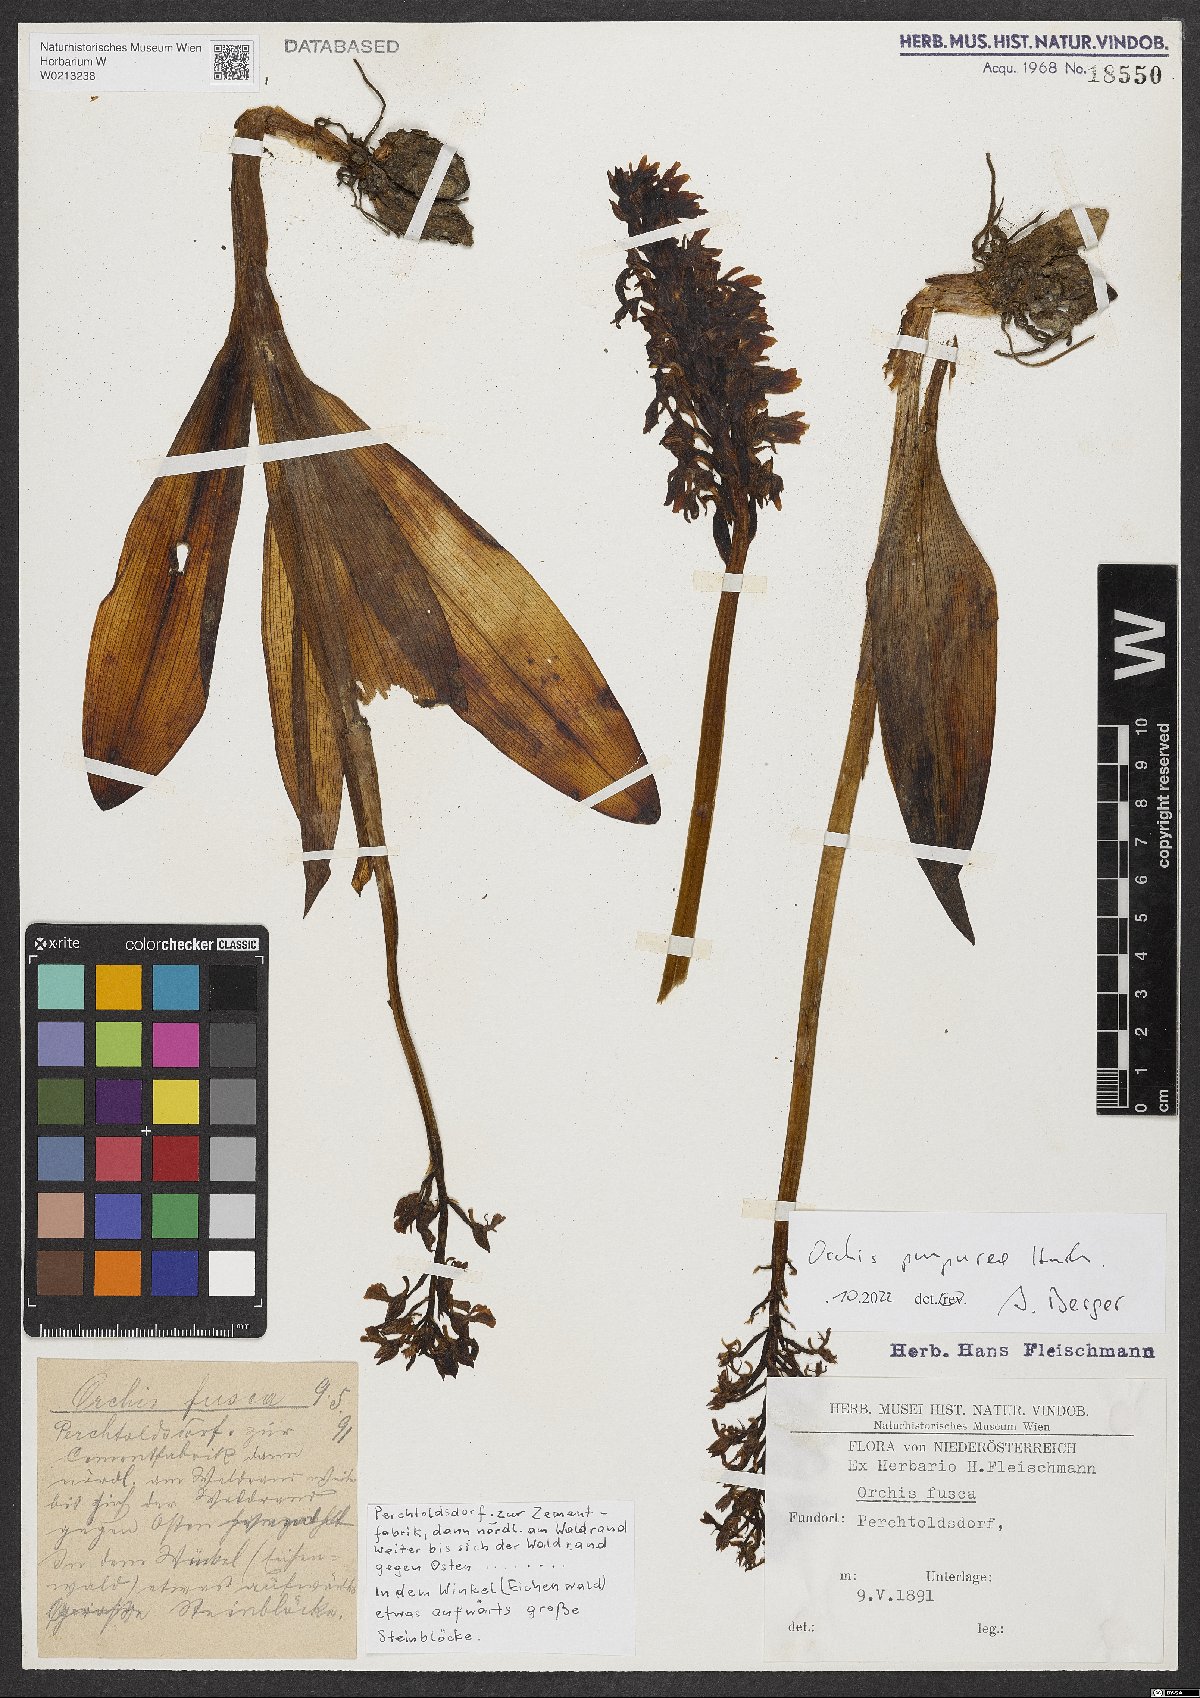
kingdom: Plantae
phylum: Tracheophyta
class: Liliopsida
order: Asparagales
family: Orchidaceae
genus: Orchis
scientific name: Orchis purpurea
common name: Lady orchid
